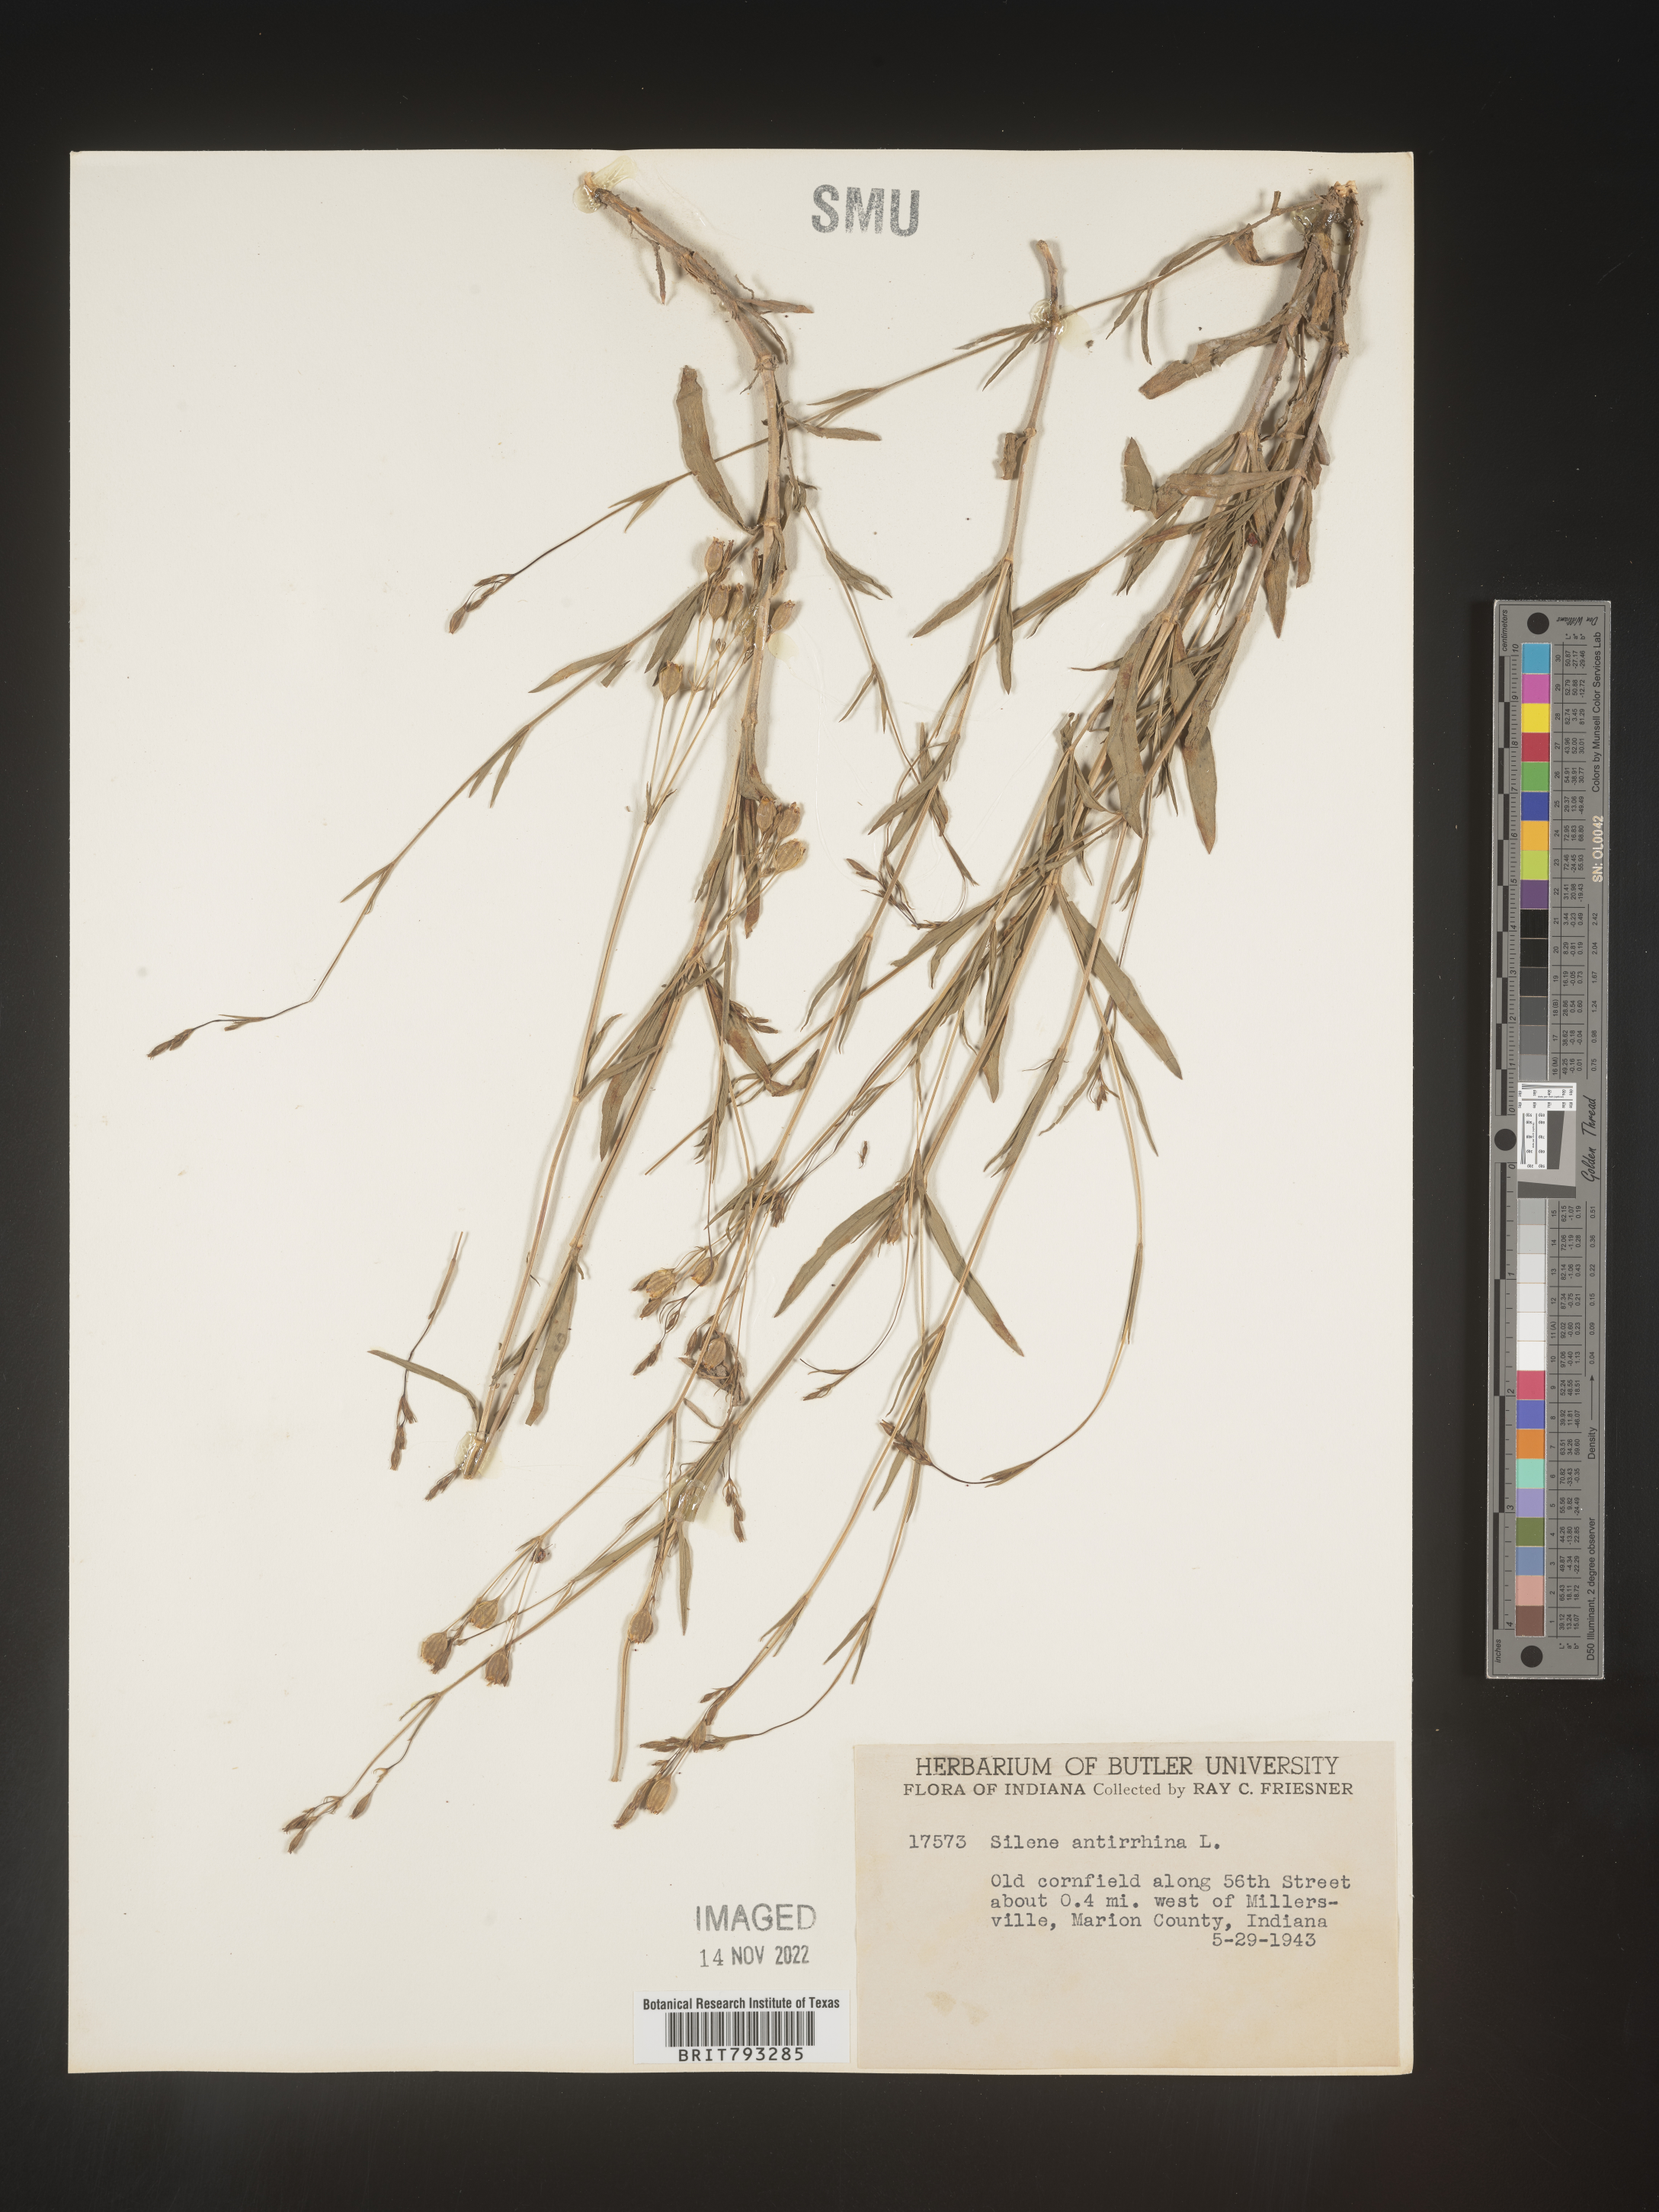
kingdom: Plantae
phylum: Tracheophyta
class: Magnoliopsida
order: Caryophyllales
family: Caryophyllaceae
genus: Silene
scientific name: Silene antirrhina
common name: Sleepy catchfly
